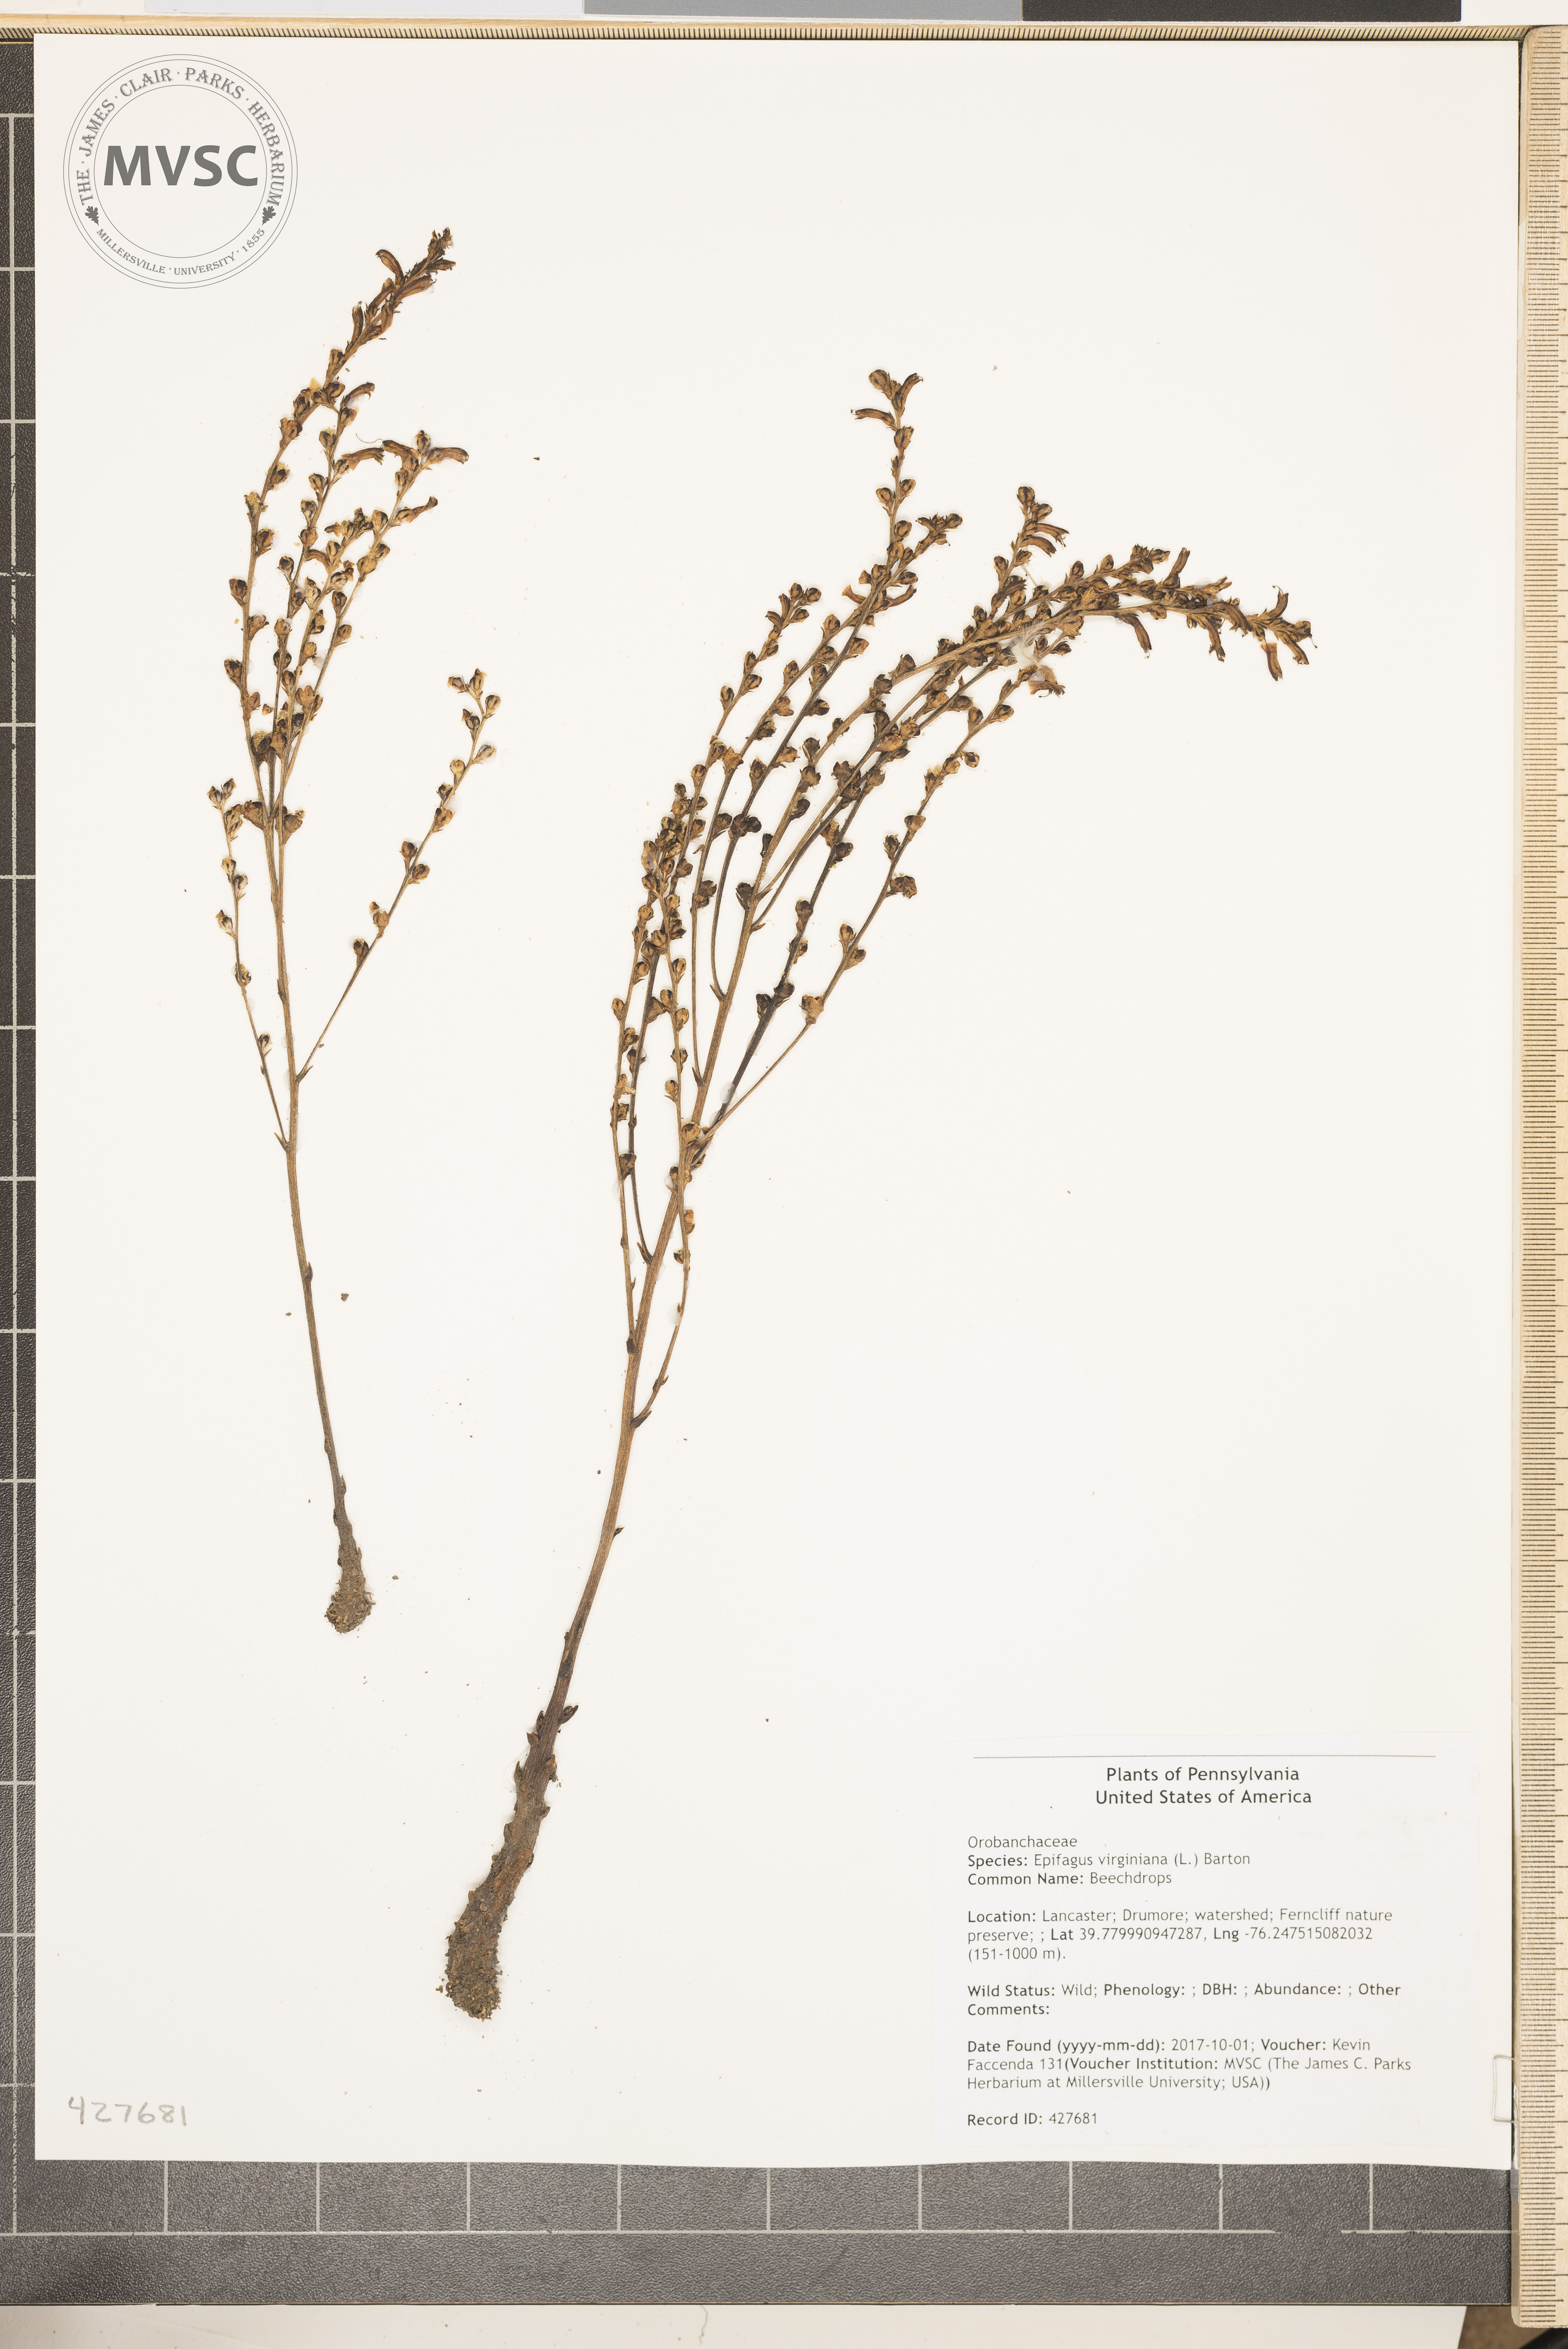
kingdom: Plantae
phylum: Tracheophyta
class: Magnoliopsida
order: Lamiales
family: Orobanchaceae
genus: Epifagus
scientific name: Epifagus virginiana
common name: Beechdrops
